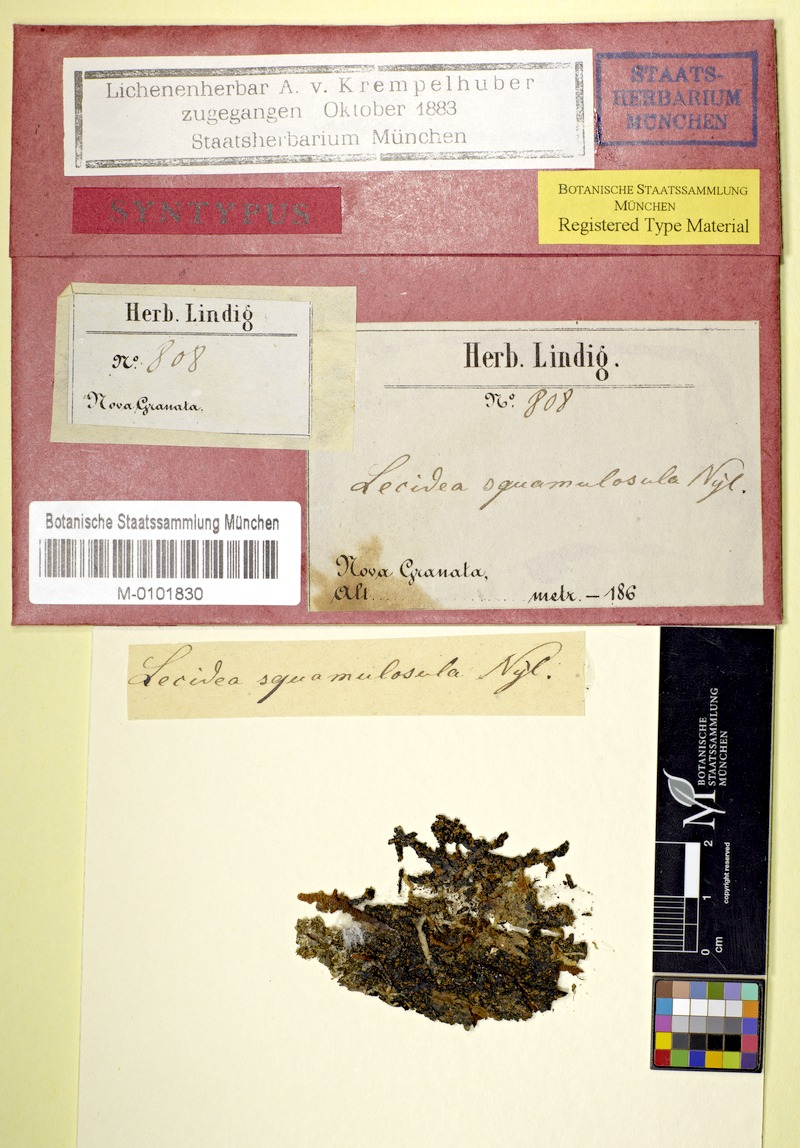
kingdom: Fungi
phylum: Ascomycota
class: Lecanoromycetes
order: Lecanorales
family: Ramalinaceae
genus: Bacidiopsora
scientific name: Bacidiopsora squamulosula
